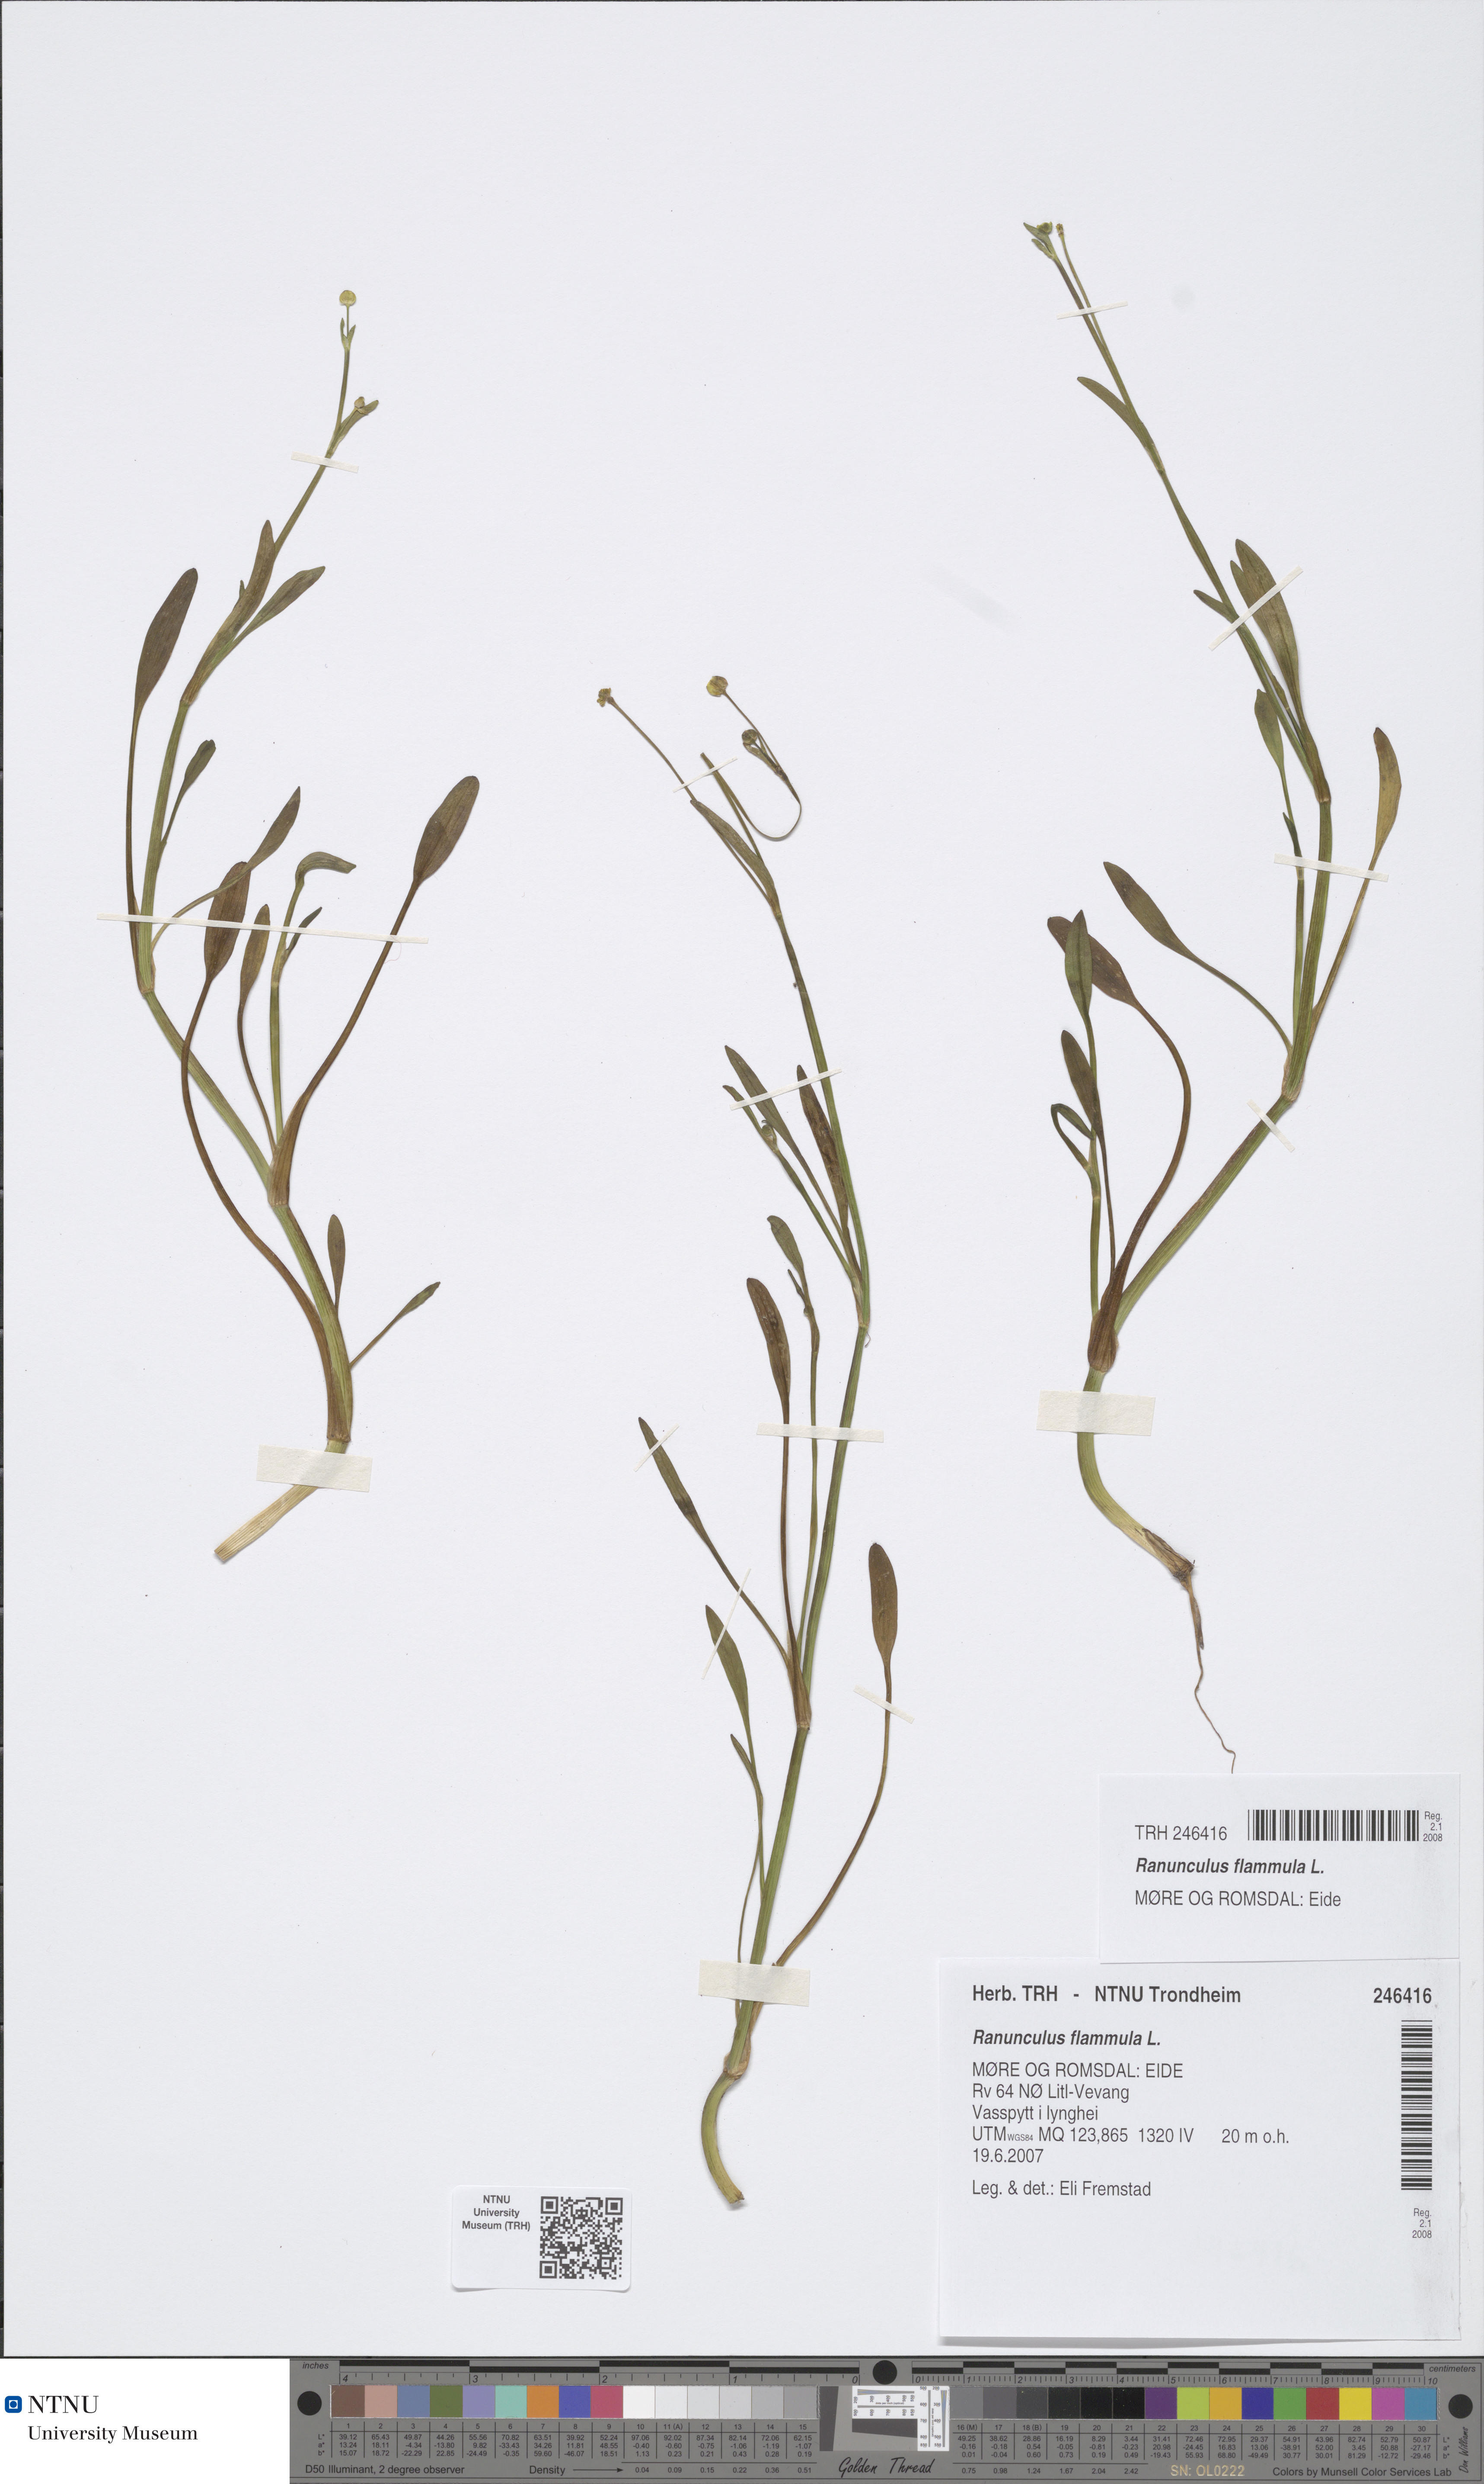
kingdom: Plantae
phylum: Tracheophyta
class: Magnoliopsida
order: Ranunculales
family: Ranunculaceae
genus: Ranunculus
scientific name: Ranunculus flammula
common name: Lesser spearwort
